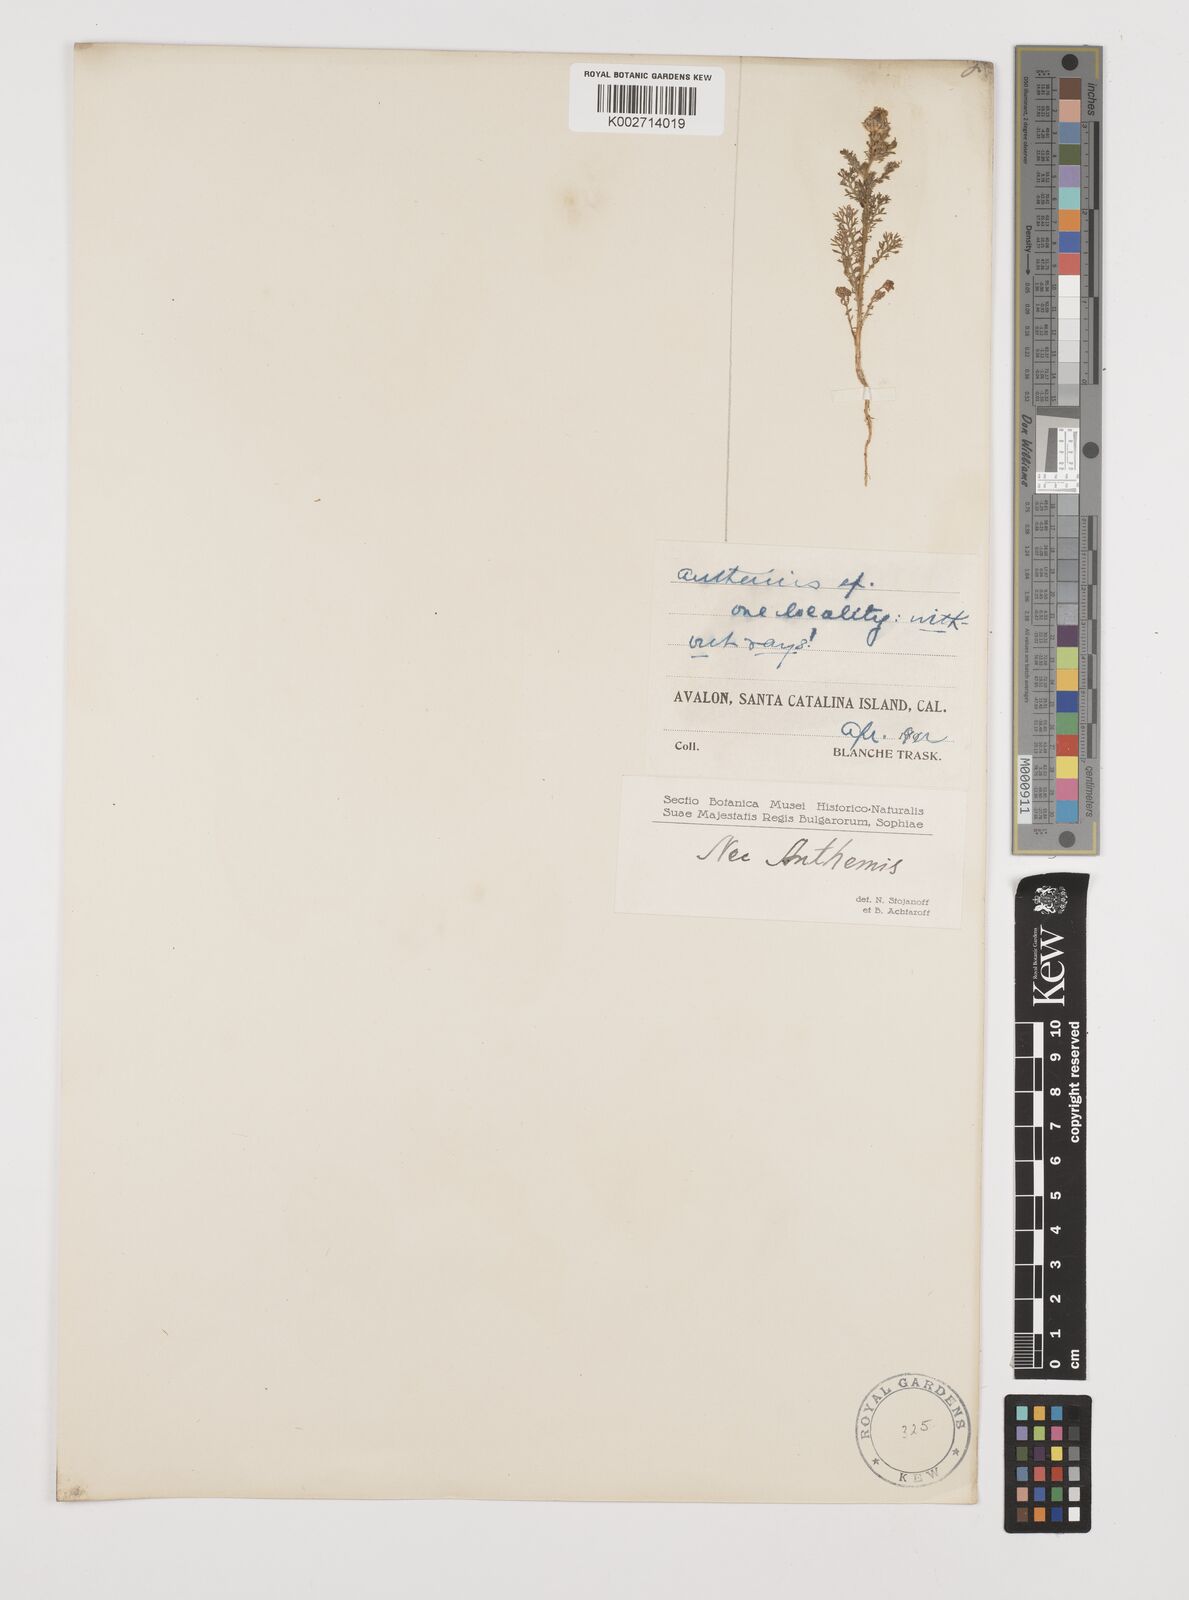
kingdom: Plantae
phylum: Tracheophyta
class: Magnoliopsida
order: Asterales
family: Asteraceae
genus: Anthemis
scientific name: Anthemis
